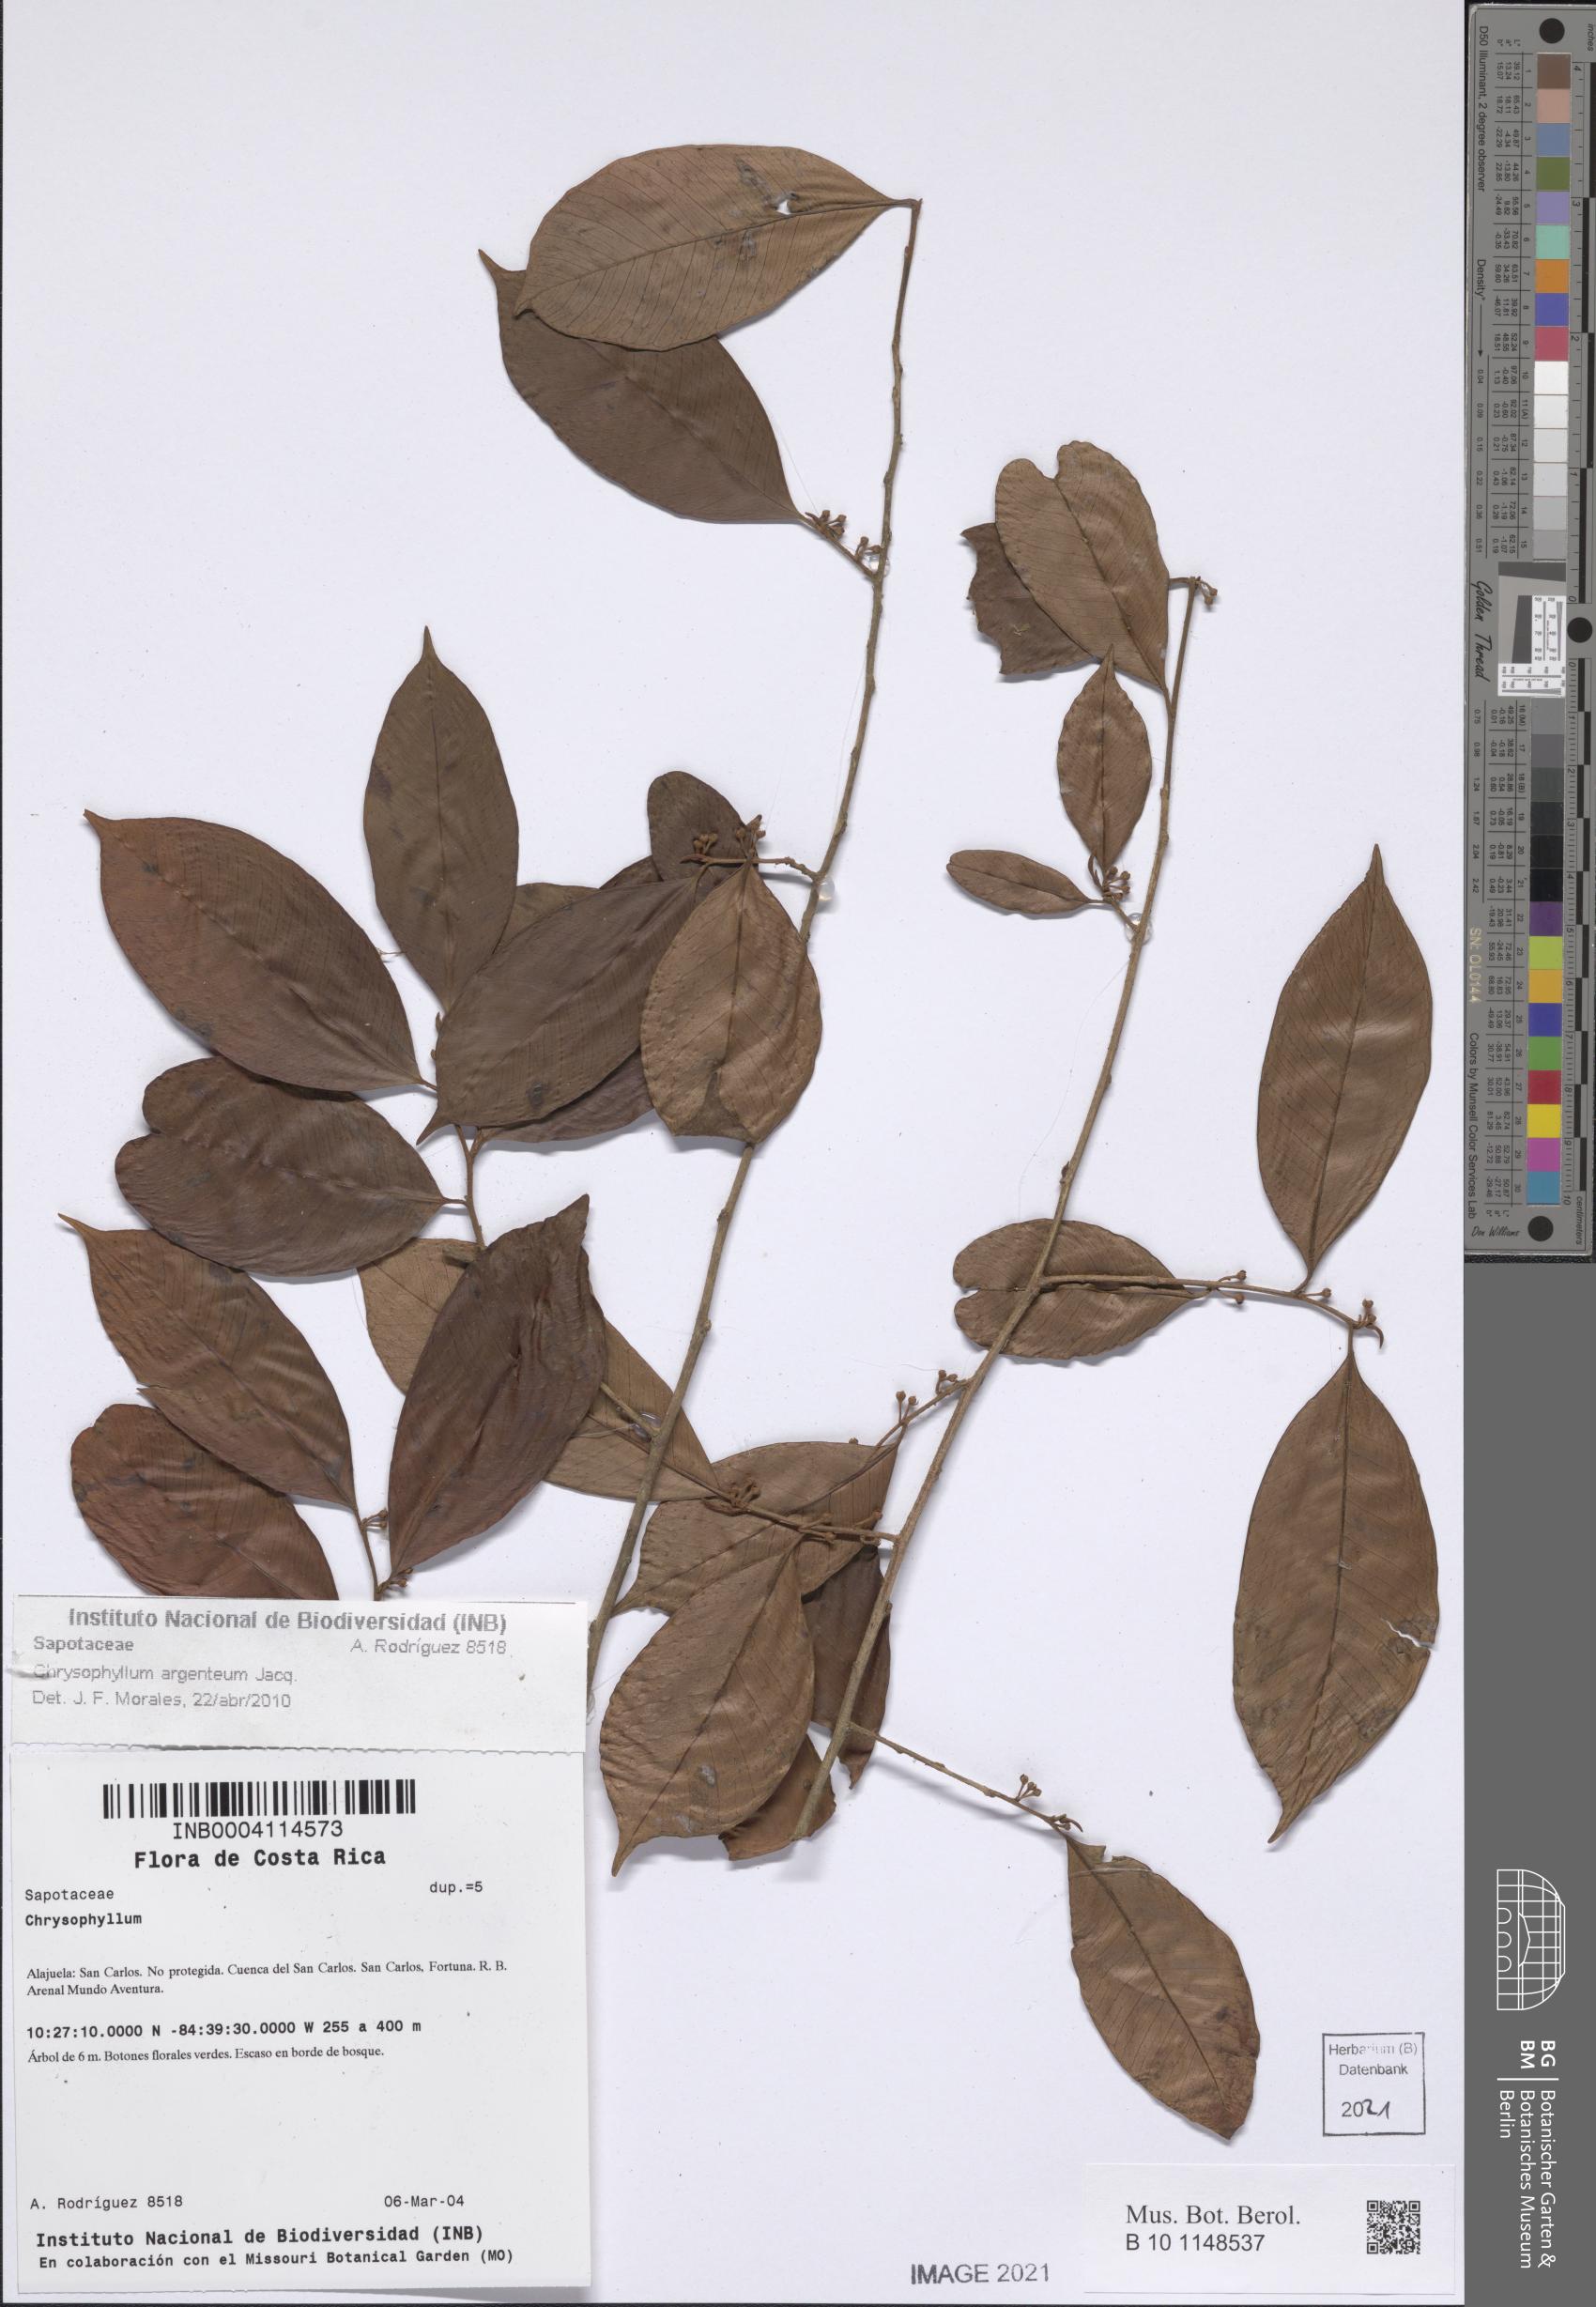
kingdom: Plantae
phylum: Tracheophyta
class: Magnoliopsida
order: Ericales
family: Sapotaceae
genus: Chrysophyllum
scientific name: Chrysophyllum argenteum
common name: Smooth star apple
